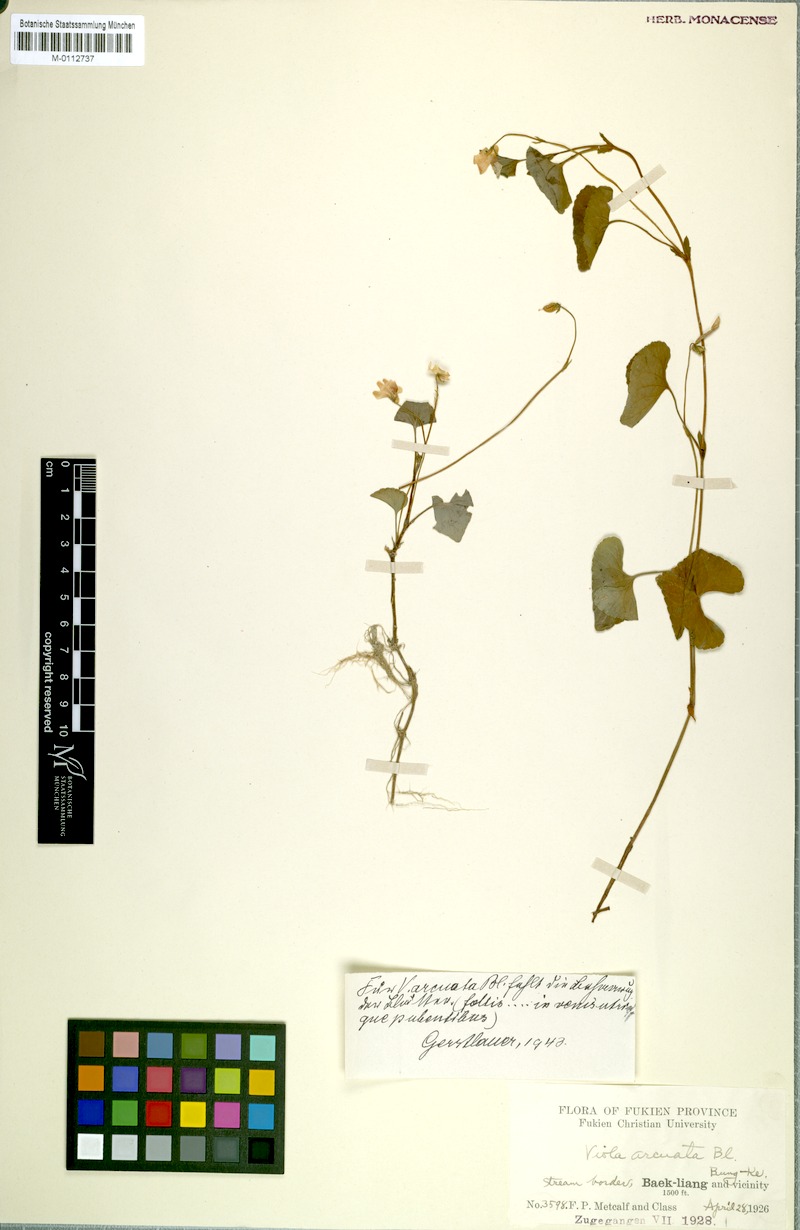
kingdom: Plantae
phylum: Tracheophyta
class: Magnoliopsida
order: Malpighiales
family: Violaceae
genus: Viola
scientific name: Viola hamiltoniana
